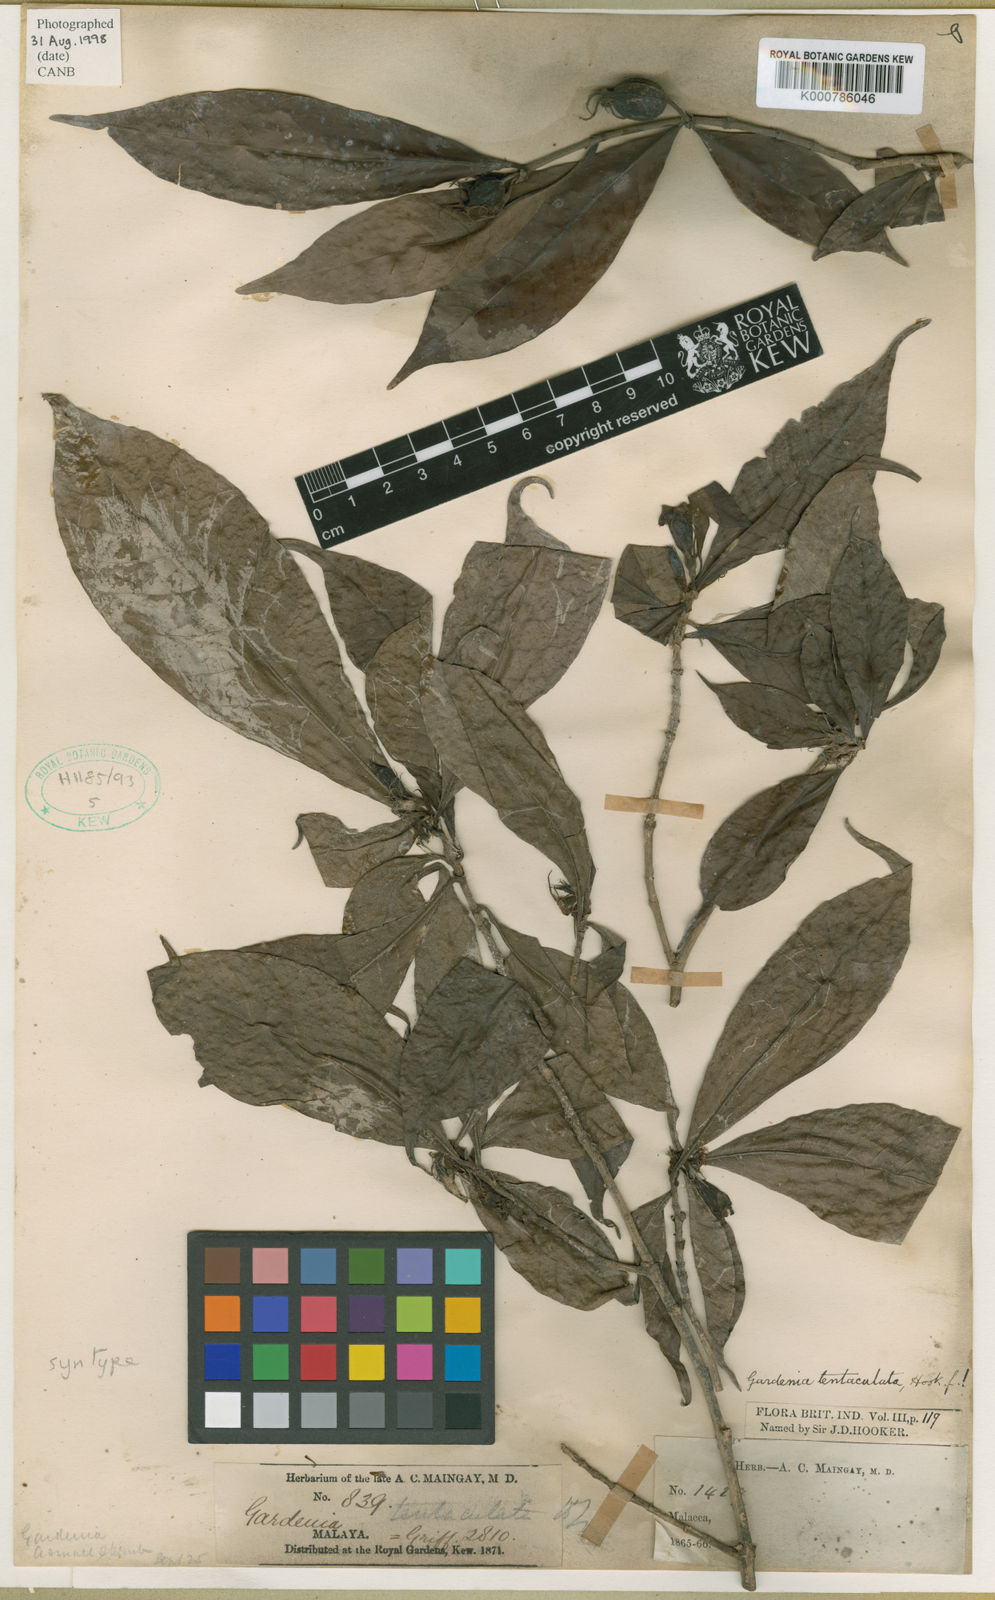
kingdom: Plantae
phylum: Tracheophyta
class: Magnoliopsida
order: Gentianales
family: Rubiaceae
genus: Kailarsenia
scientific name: Kailarsenia tentaculata
